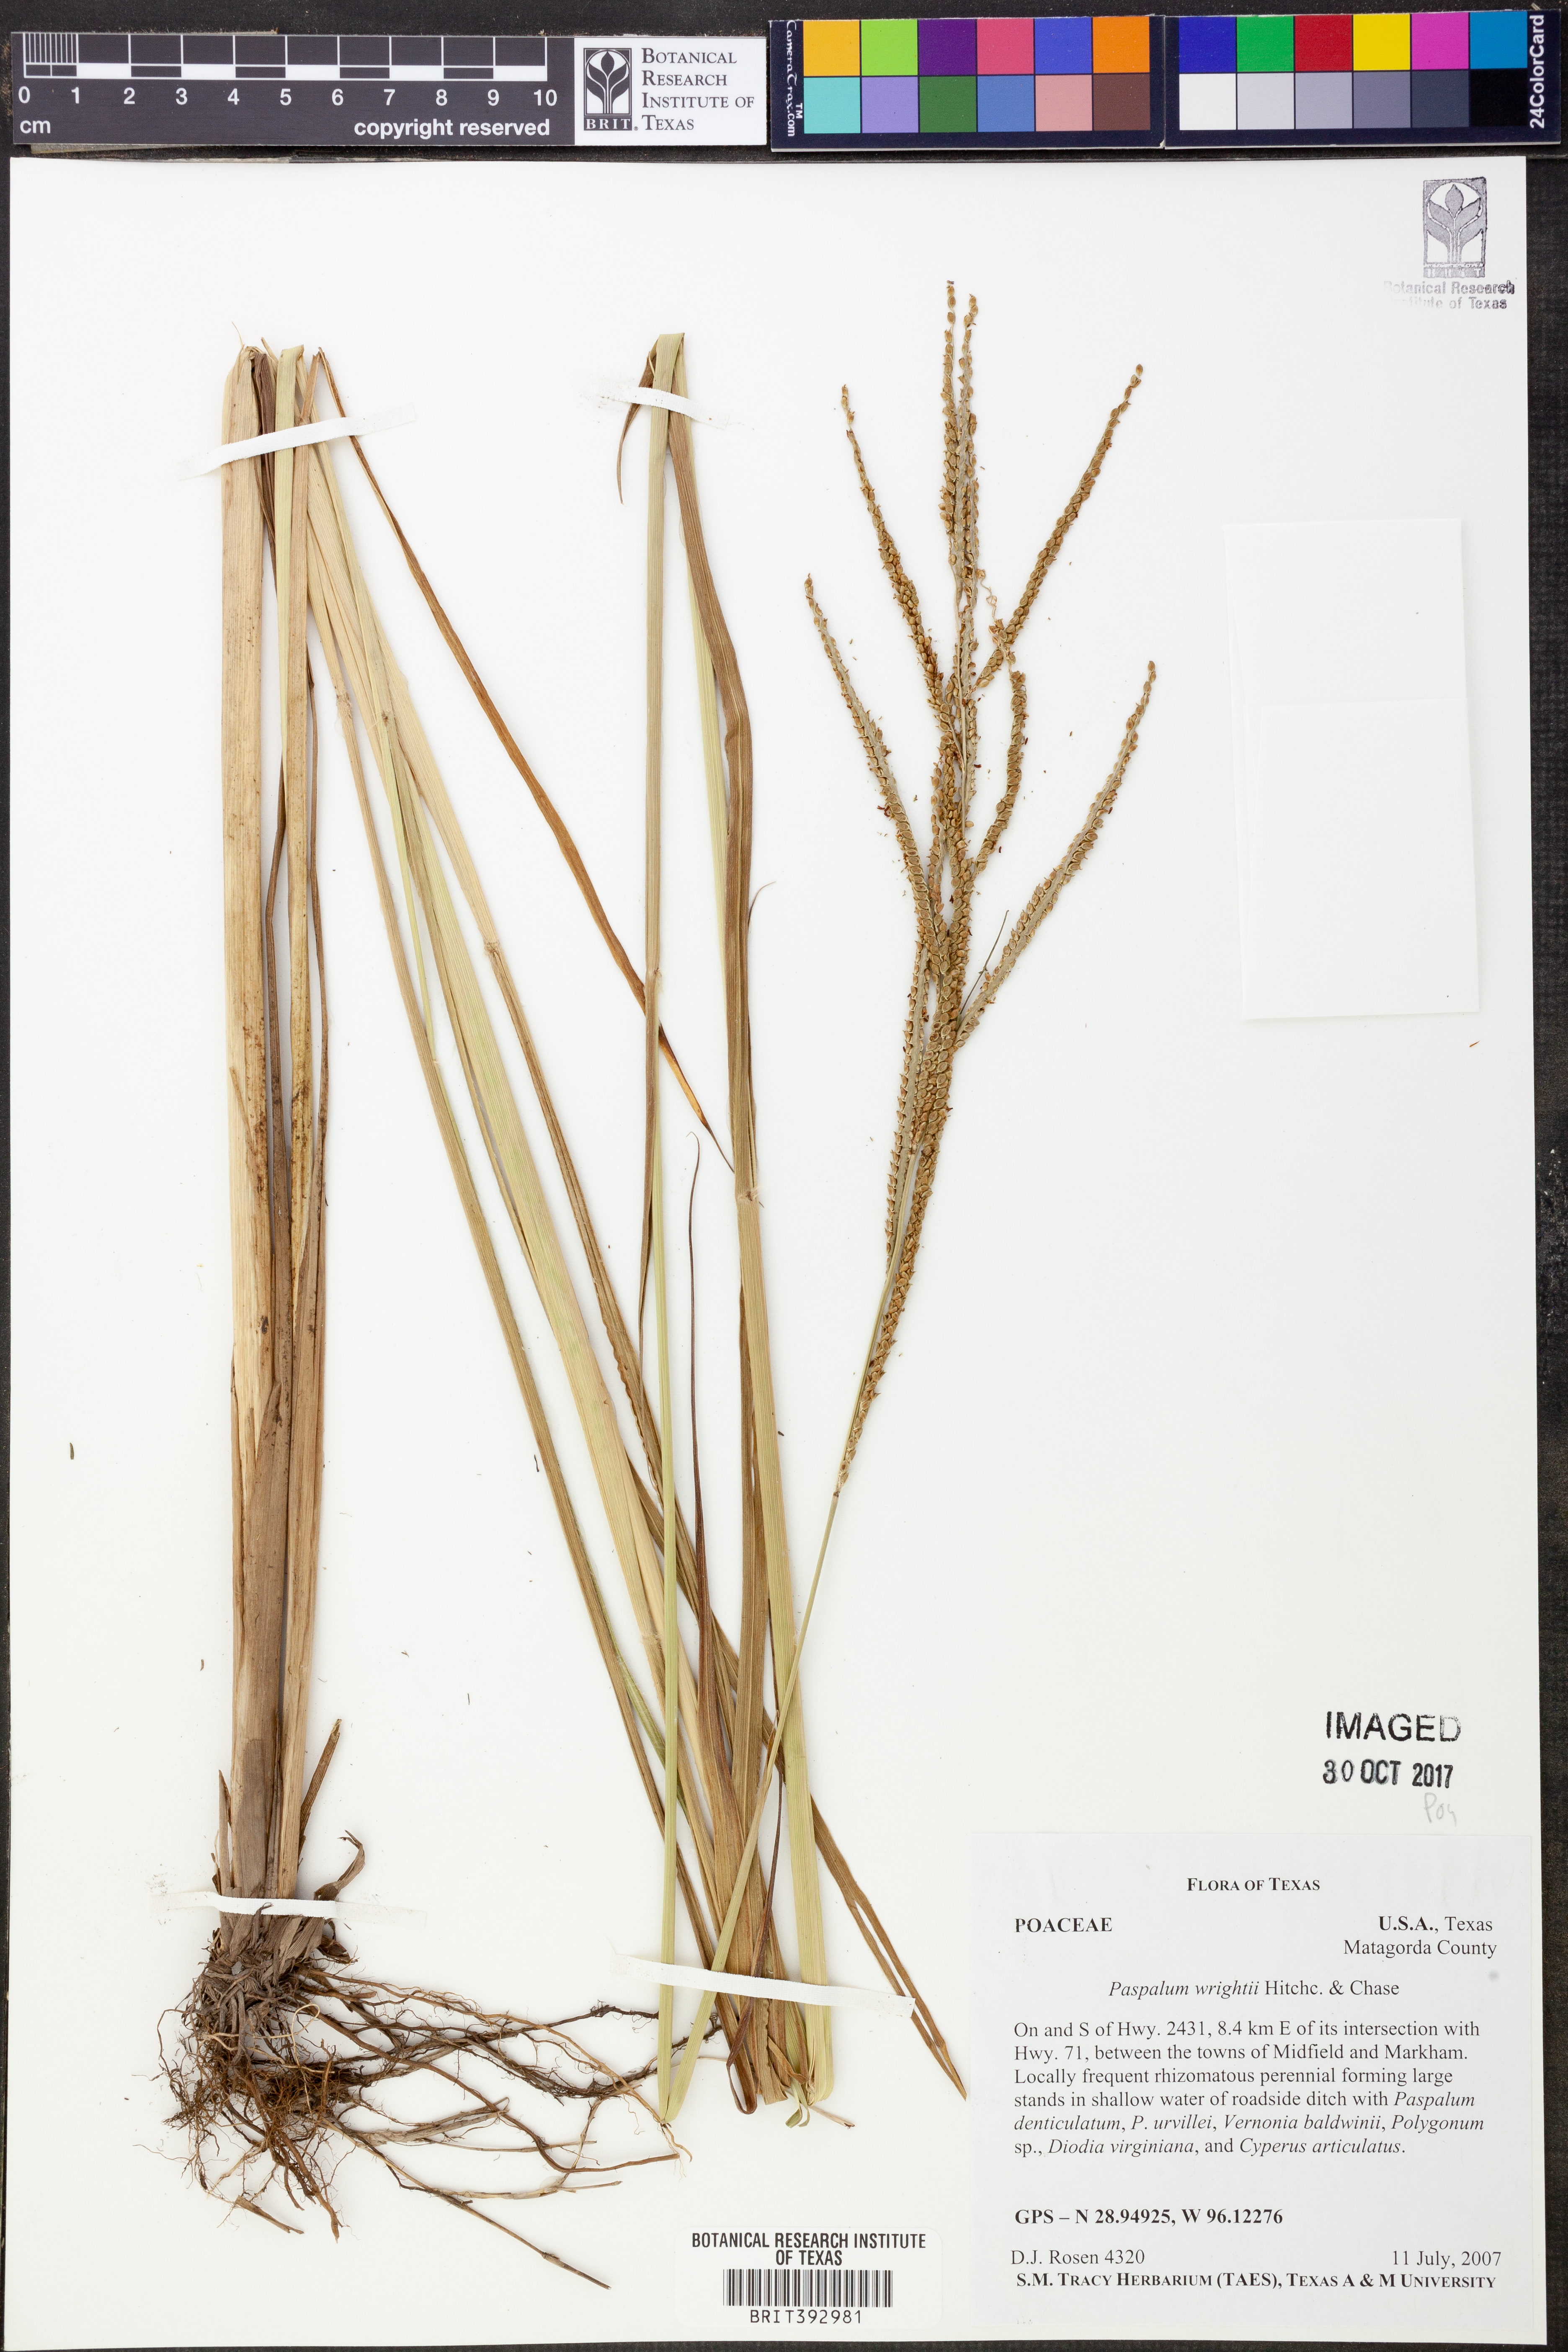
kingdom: Plantae
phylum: Tracheophyta
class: Liliopsida
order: Poales
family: Poaceae
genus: Paspalum
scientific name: Paspalum wrightii
